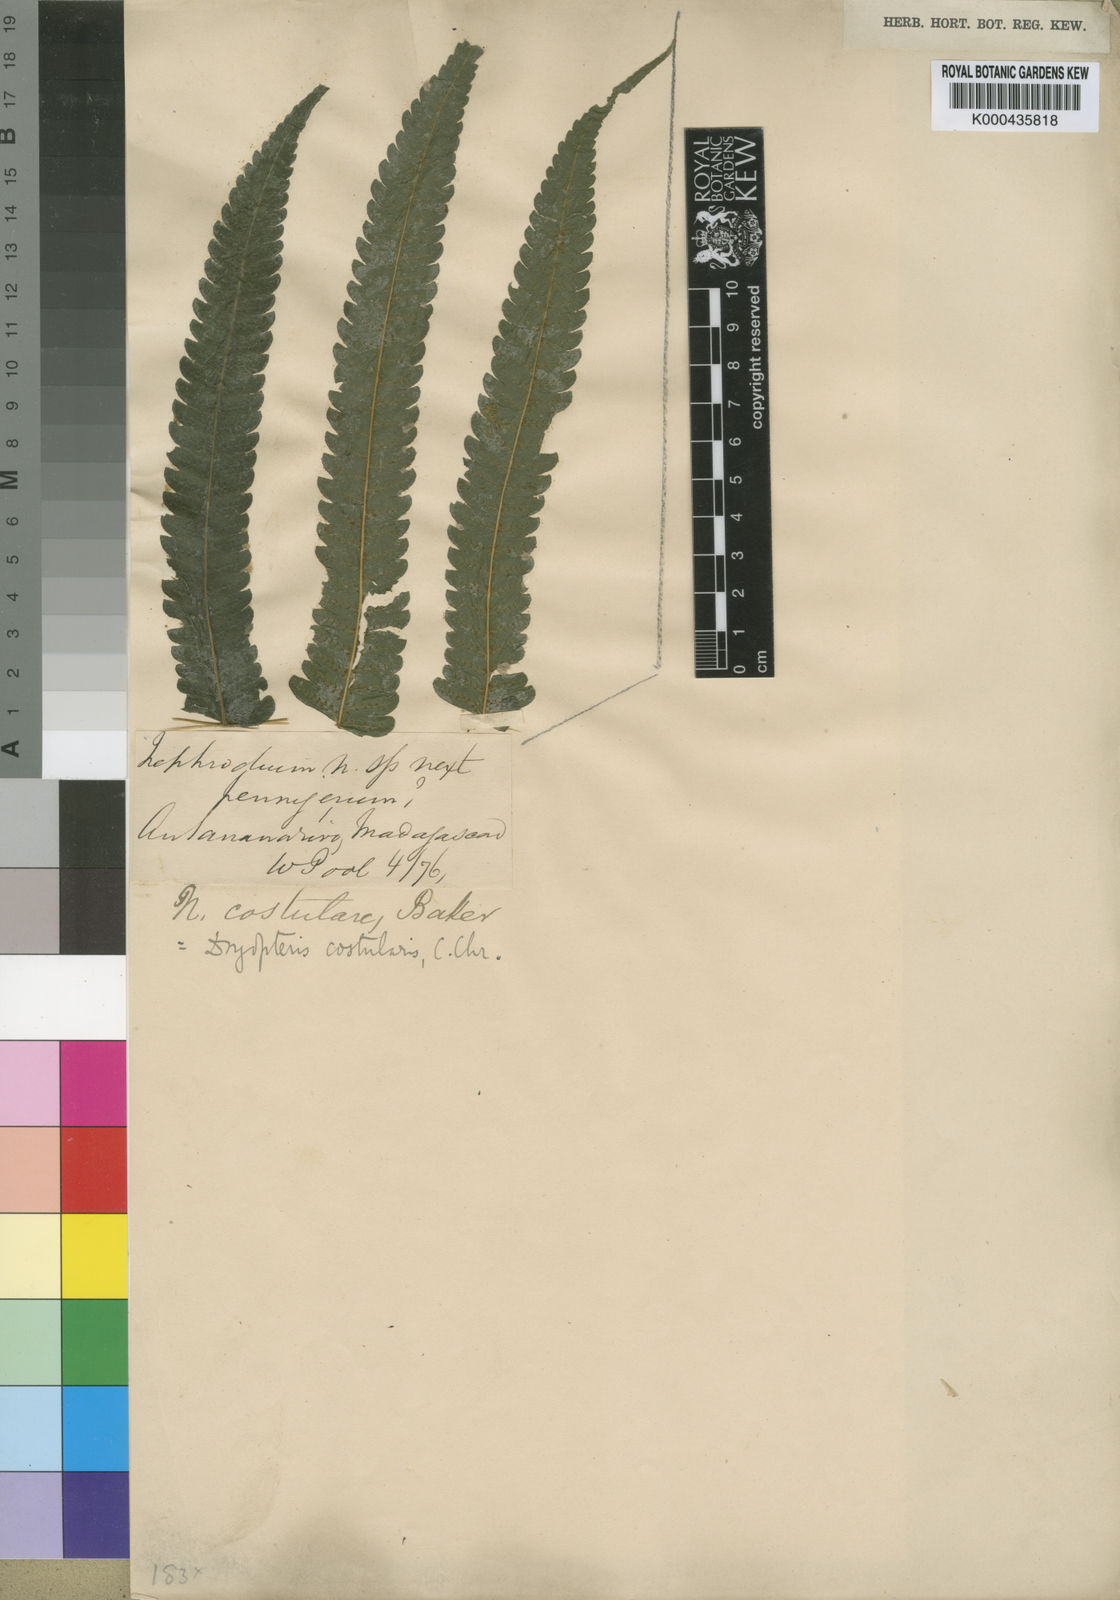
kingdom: Plantae
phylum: Tracheophyta
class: Polypodiopsida
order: Polypodiales
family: Thelypteridaceae
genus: Menisorus
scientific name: Menisorus unitus
